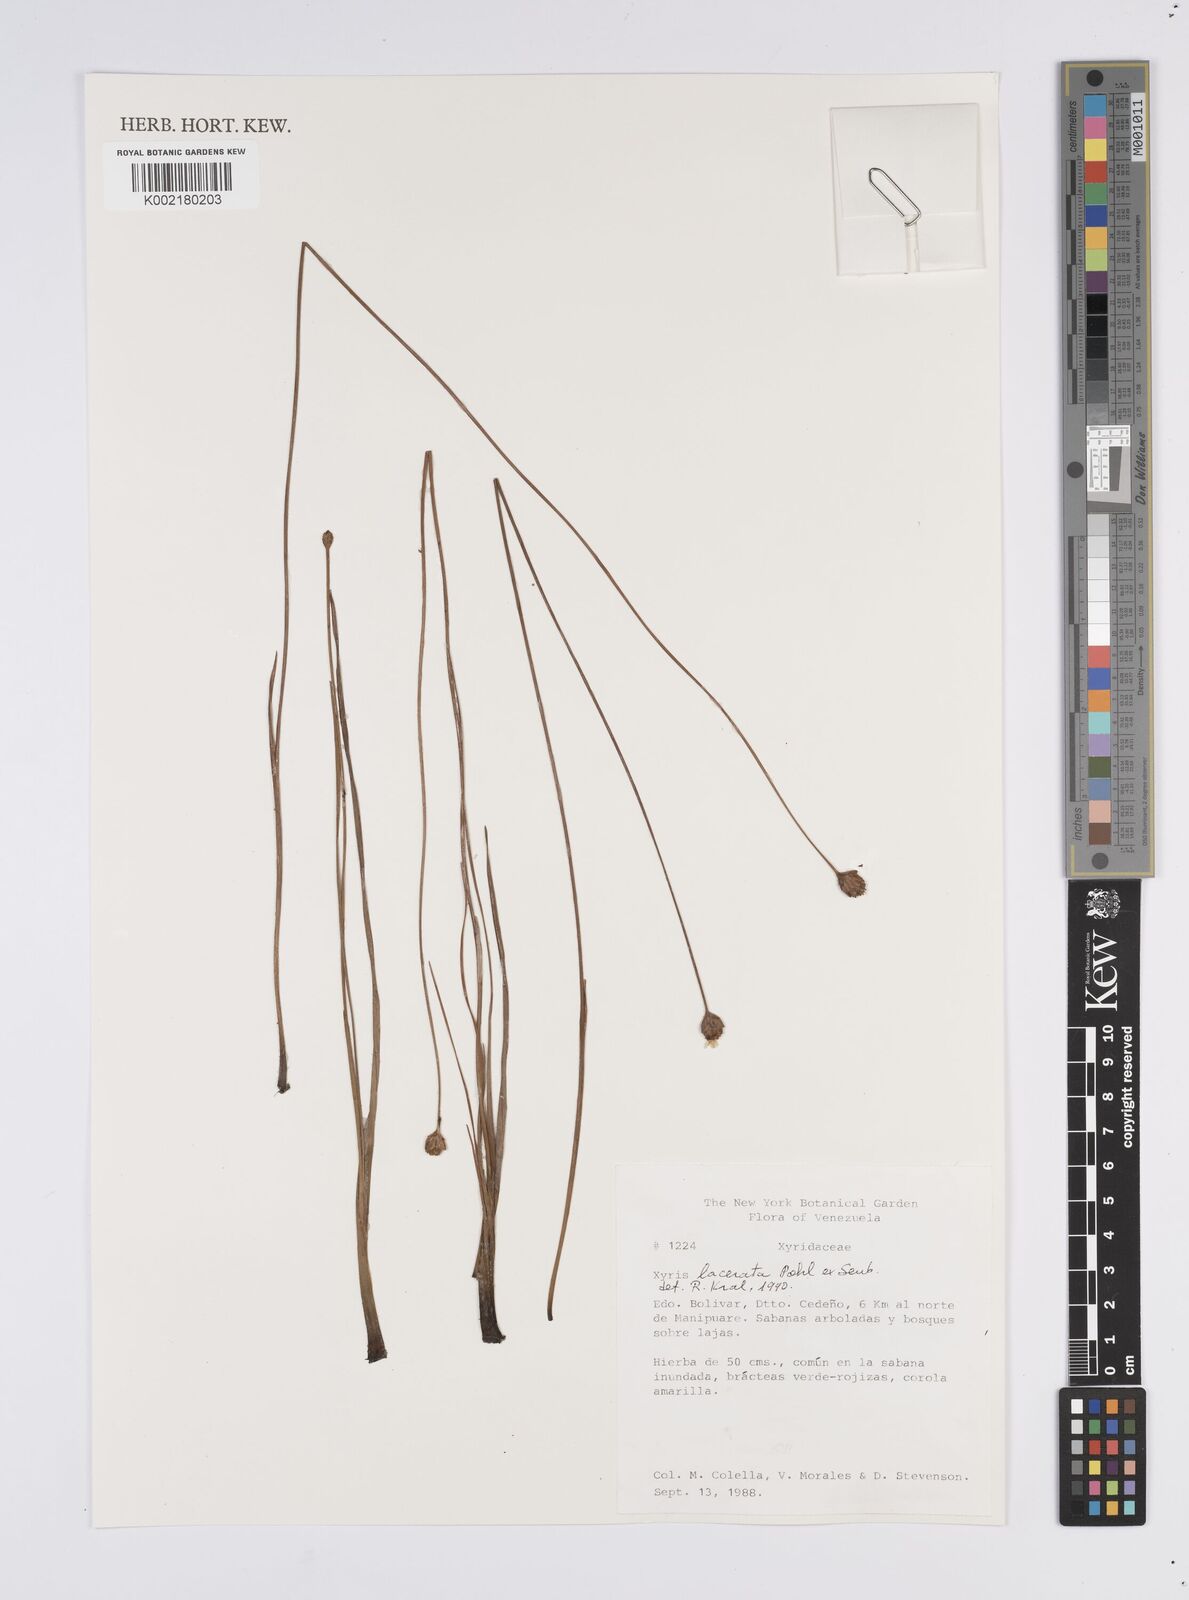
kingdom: Plantae
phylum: Tracheophyta
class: Liliopsida
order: Poales
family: Xyridaceae
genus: Xyris
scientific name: Xyris lacerata
